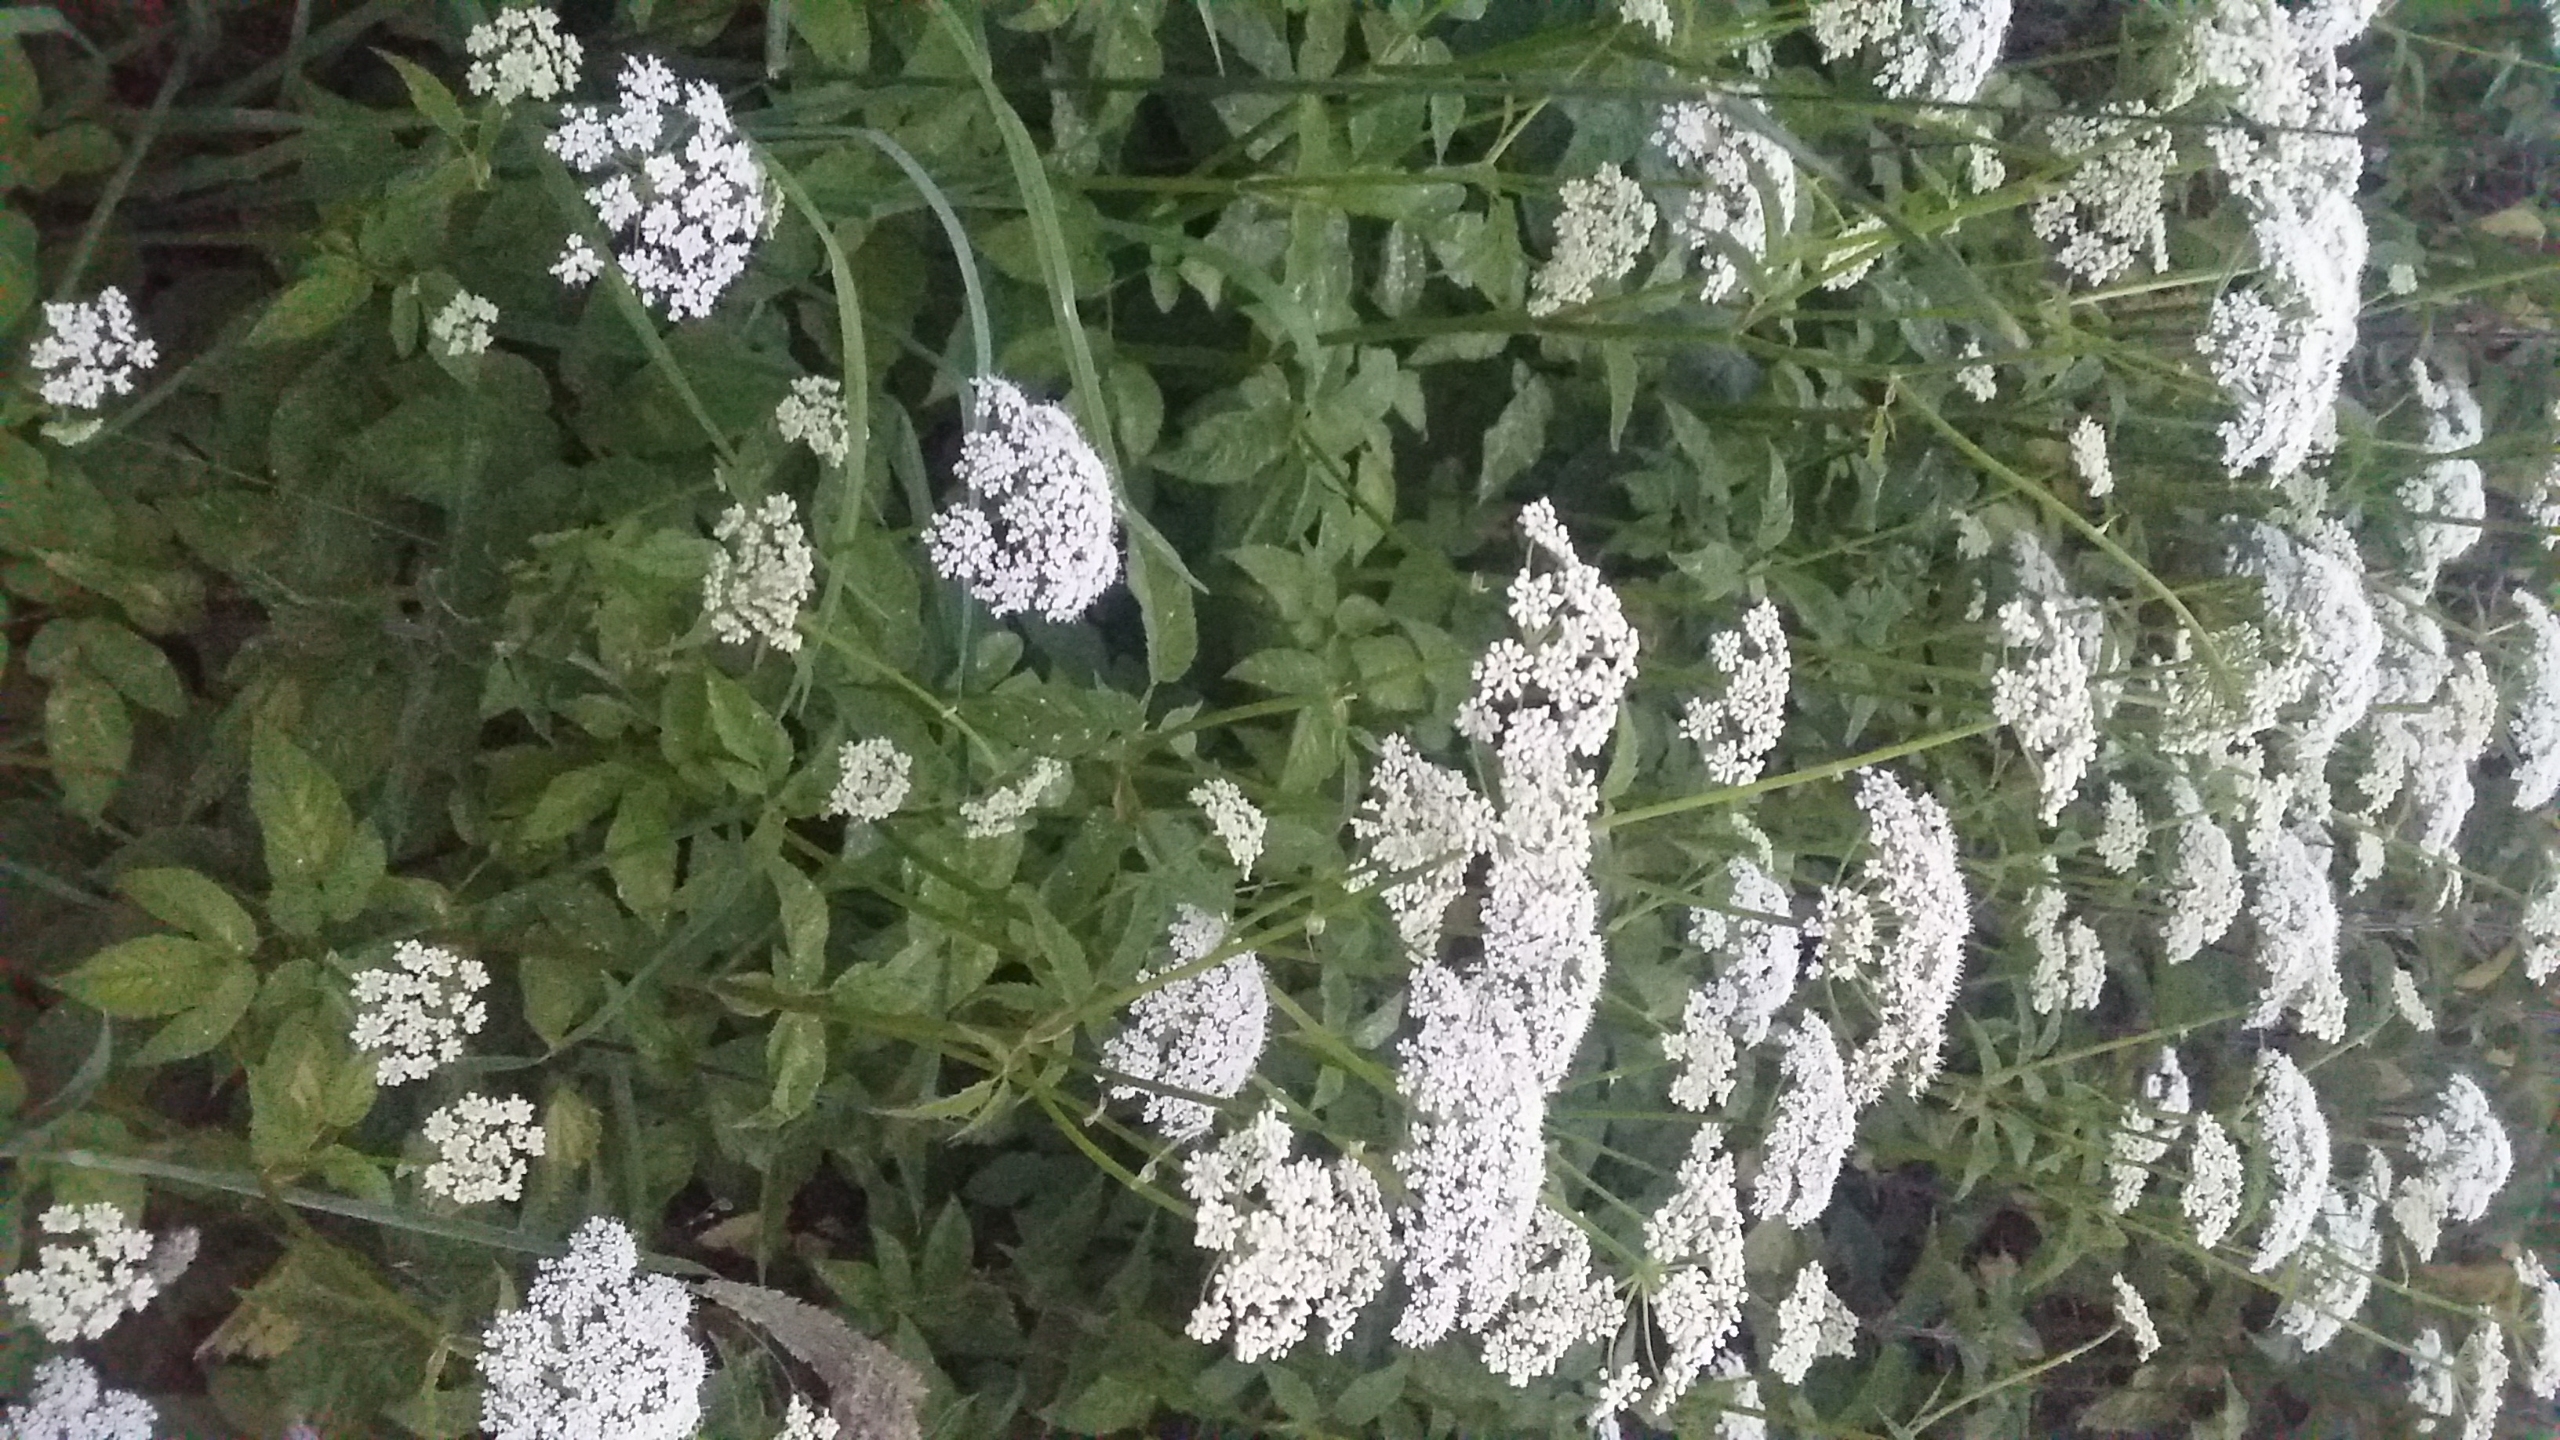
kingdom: Plantae
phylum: Tracheophyta
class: Magnoliopsida
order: Apiales
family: Apiaceae
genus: Aegopodium
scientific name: Aegopodium podagraria
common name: Skvalderkål
